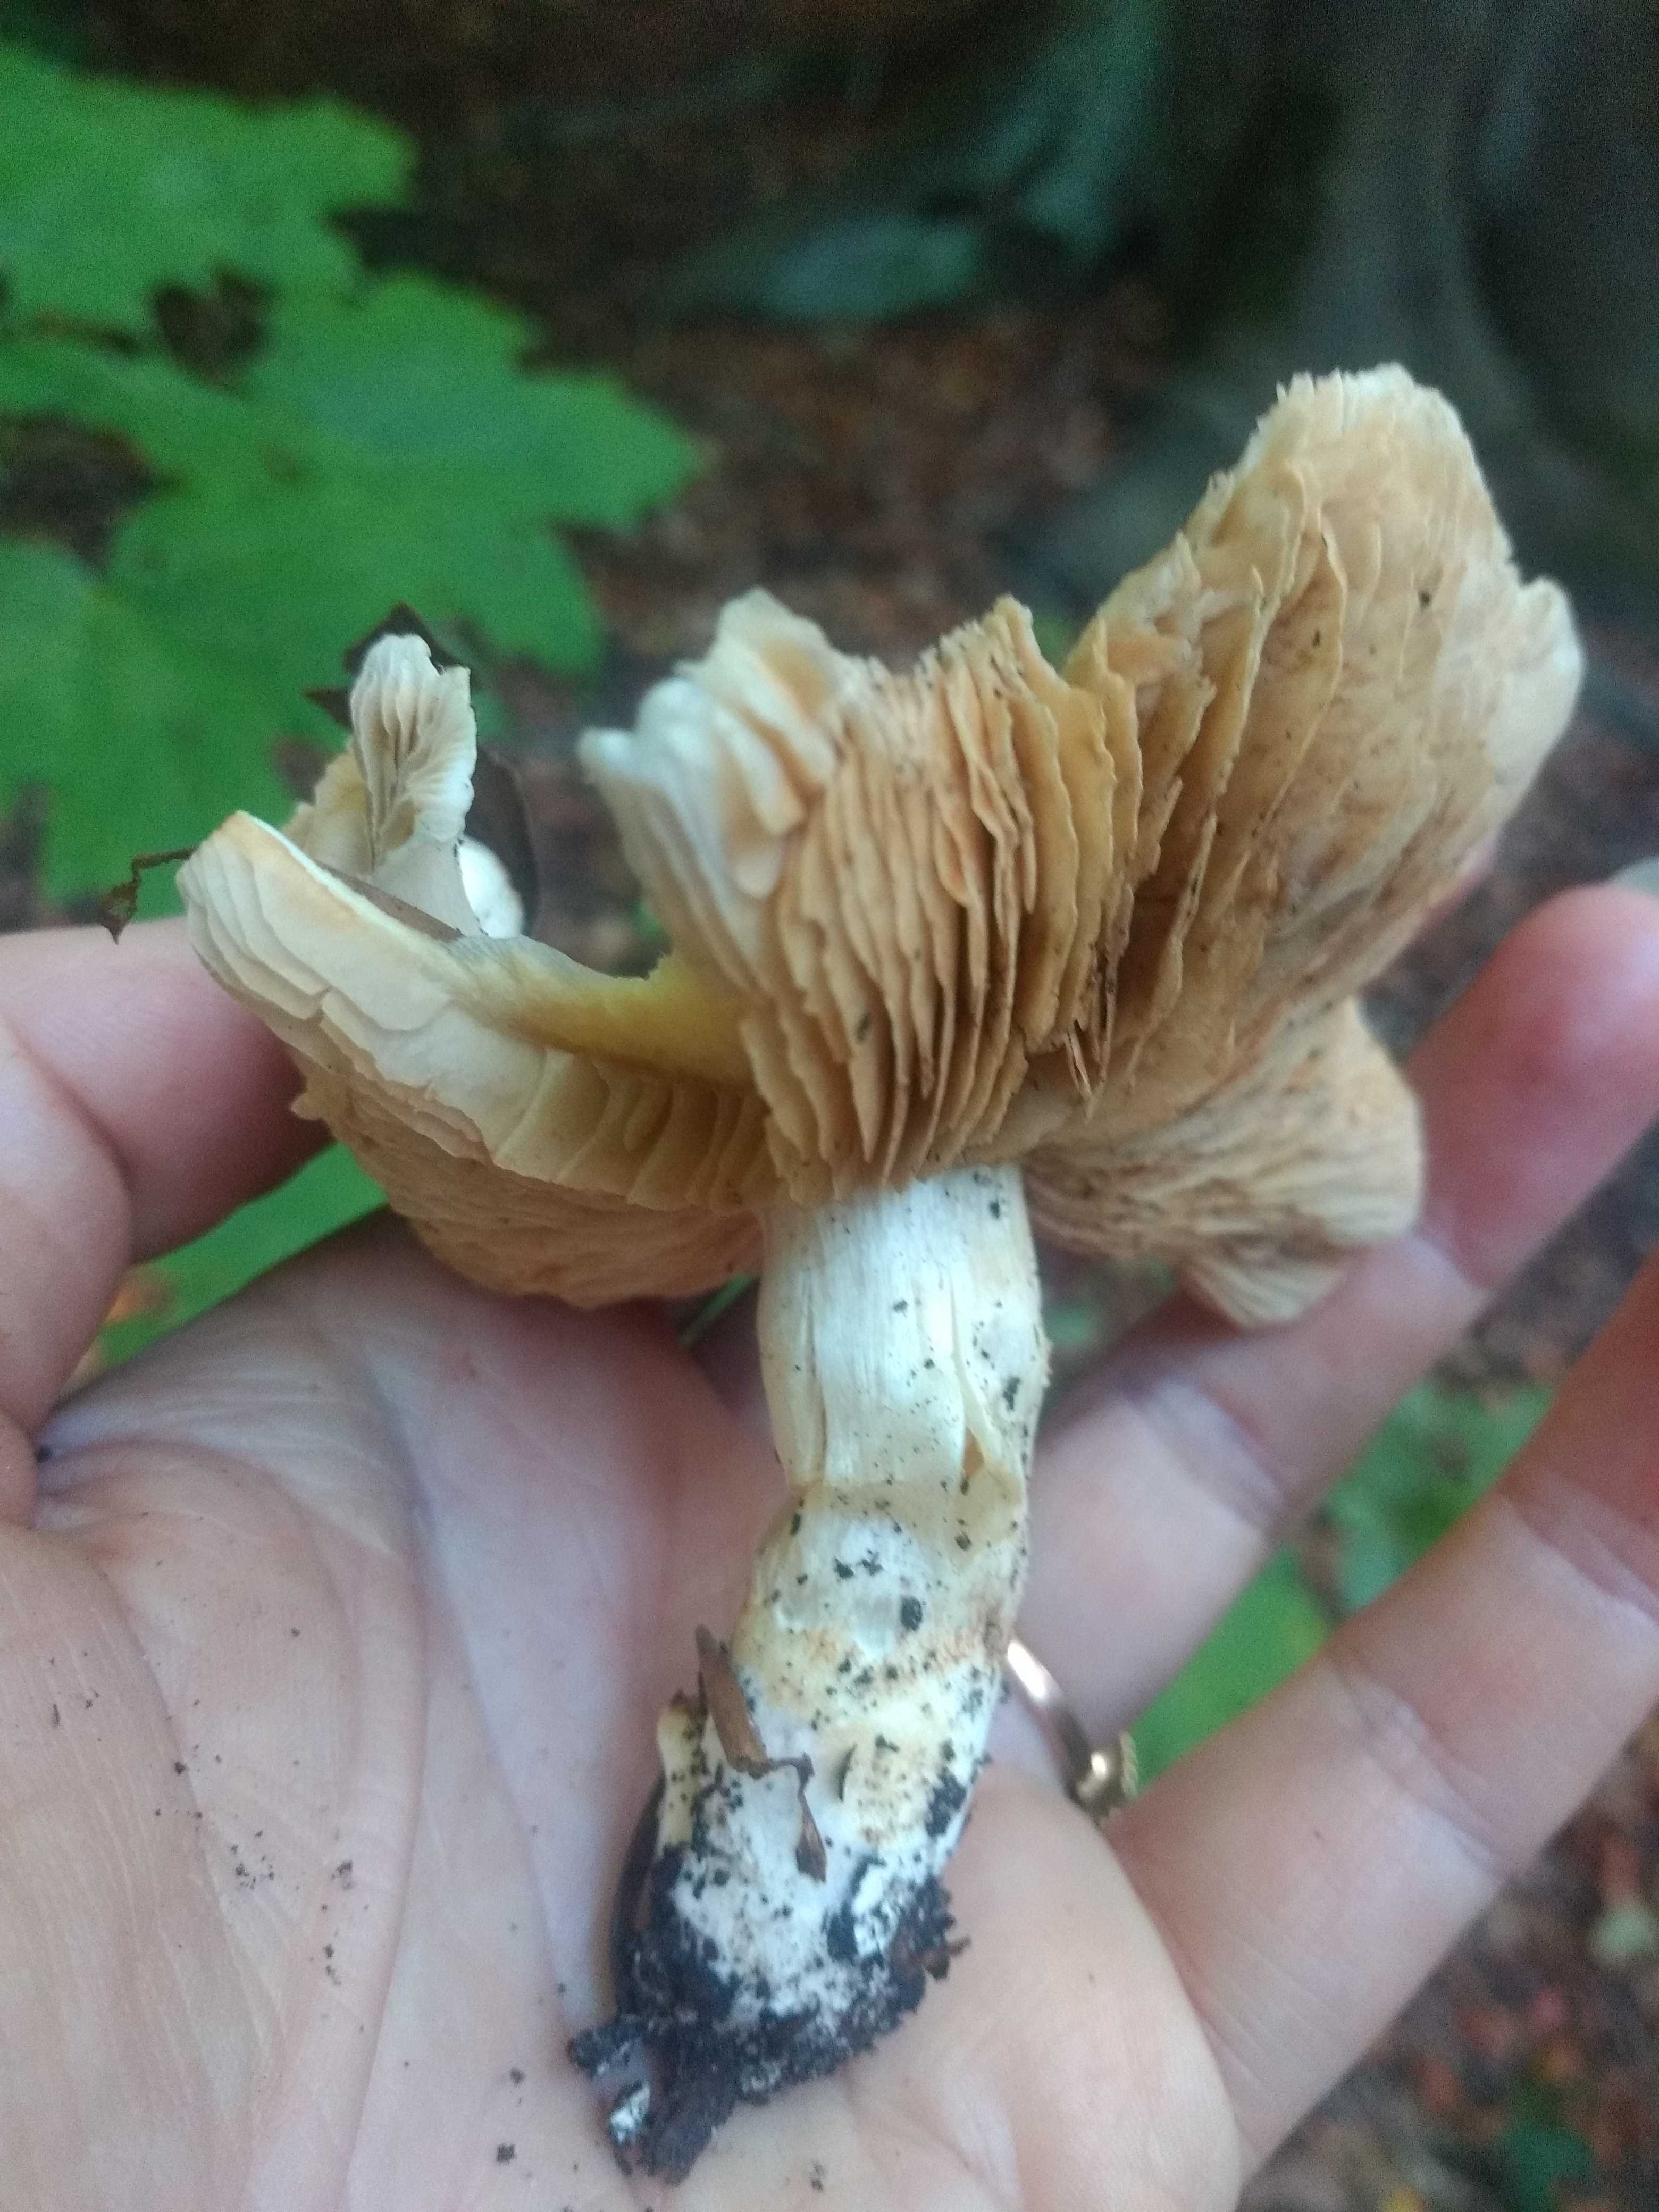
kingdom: Fungi
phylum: Basidiomycota
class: Agaricomycetes
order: Agaricales
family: Cortinariaceae
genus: Thaxterogaster
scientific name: Thaxterogaster leucoluteolus
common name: isabella slørhat
